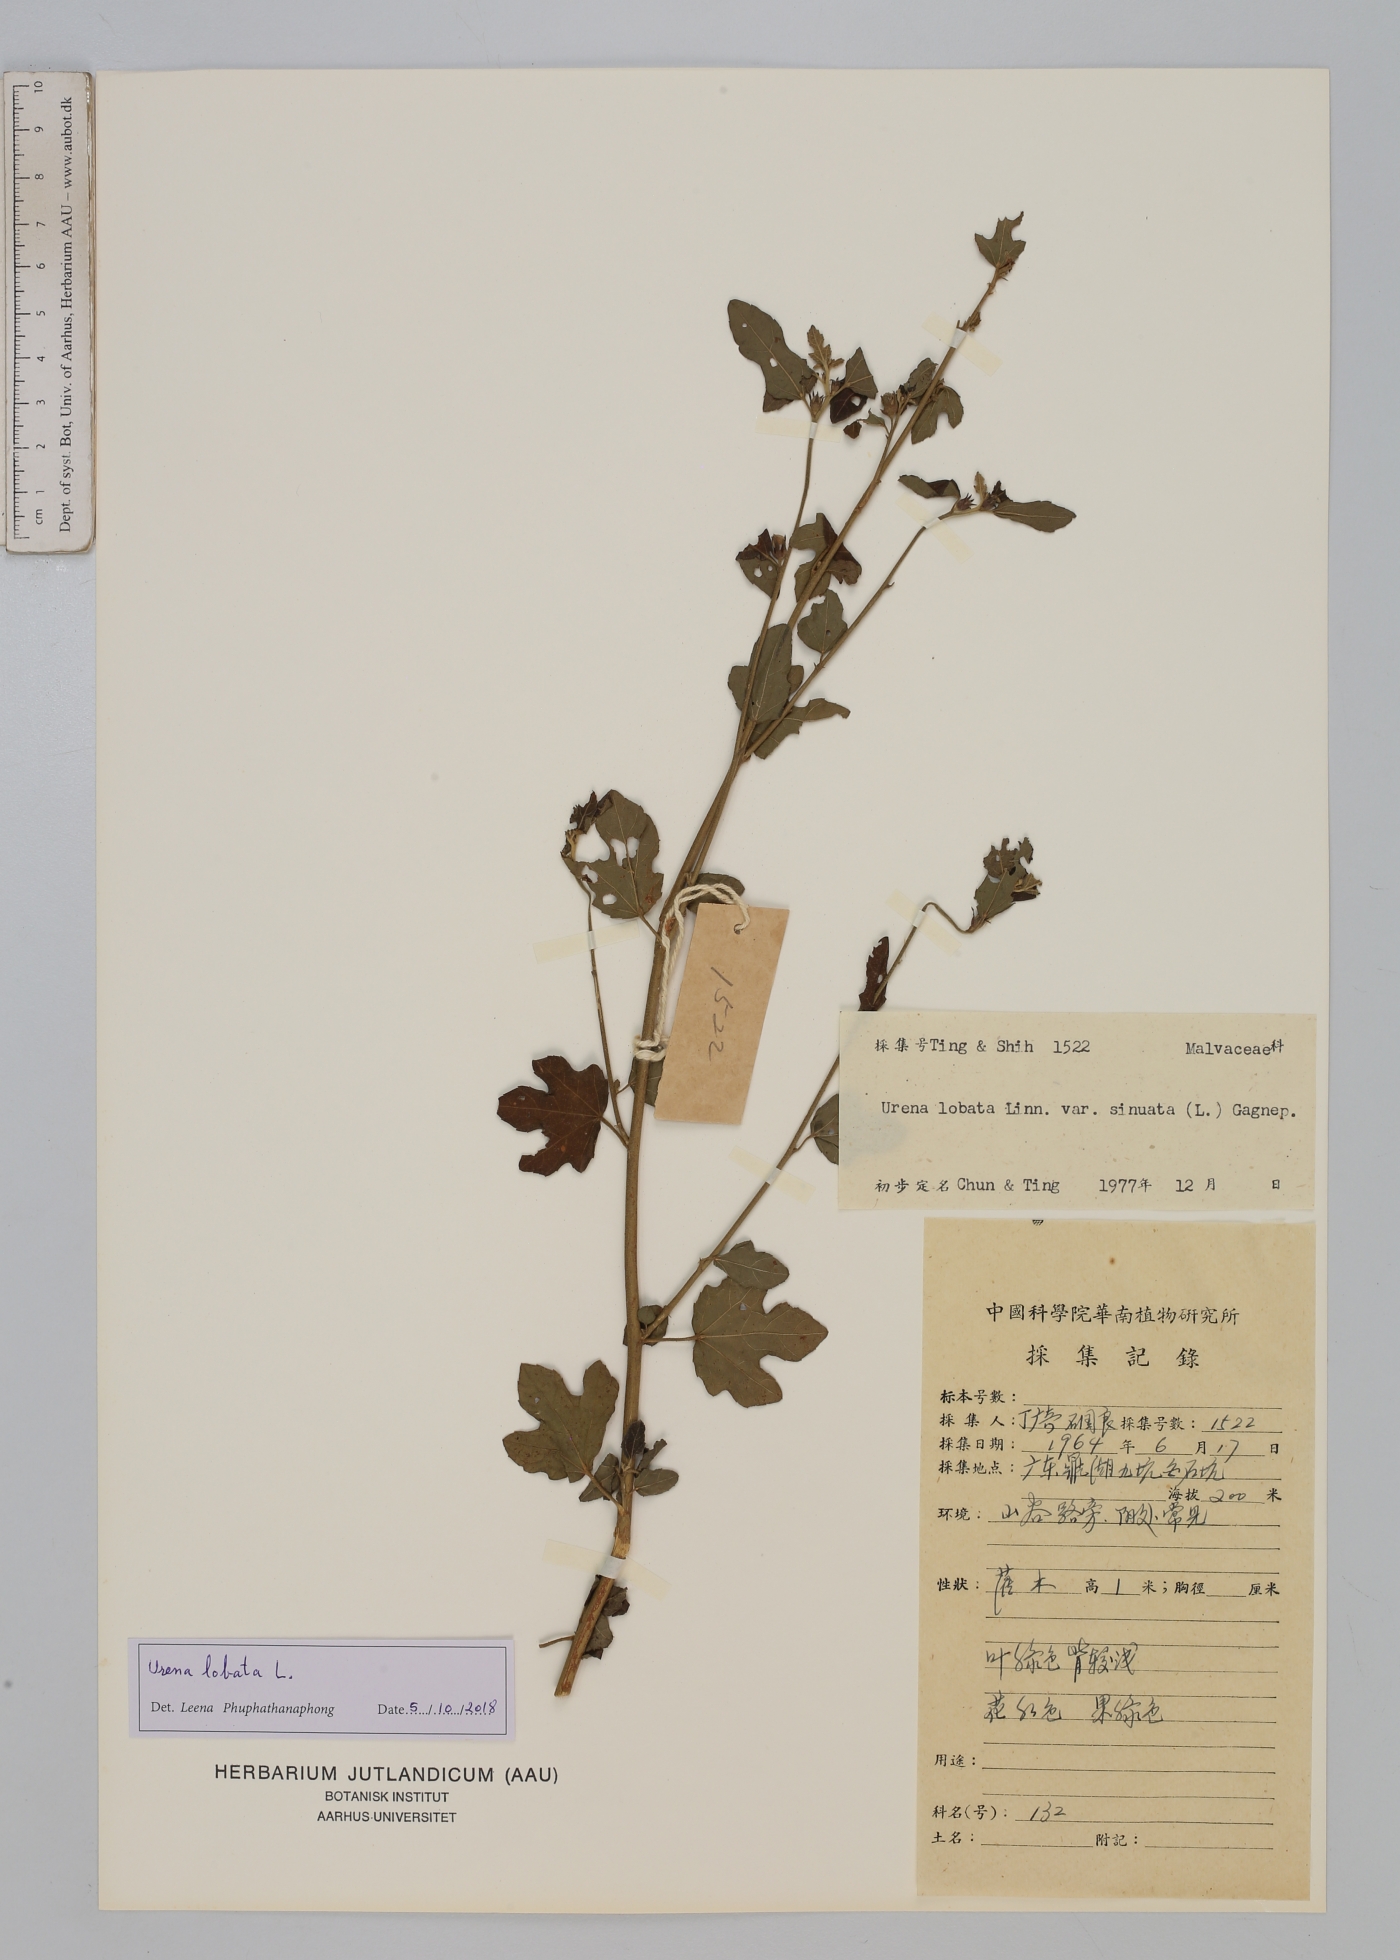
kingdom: Plantae
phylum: Tracheophyta
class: Magnoliopsida
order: Malvales
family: Malvaceae
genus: Urena
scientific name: Urena lobata
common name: Caesarweed
